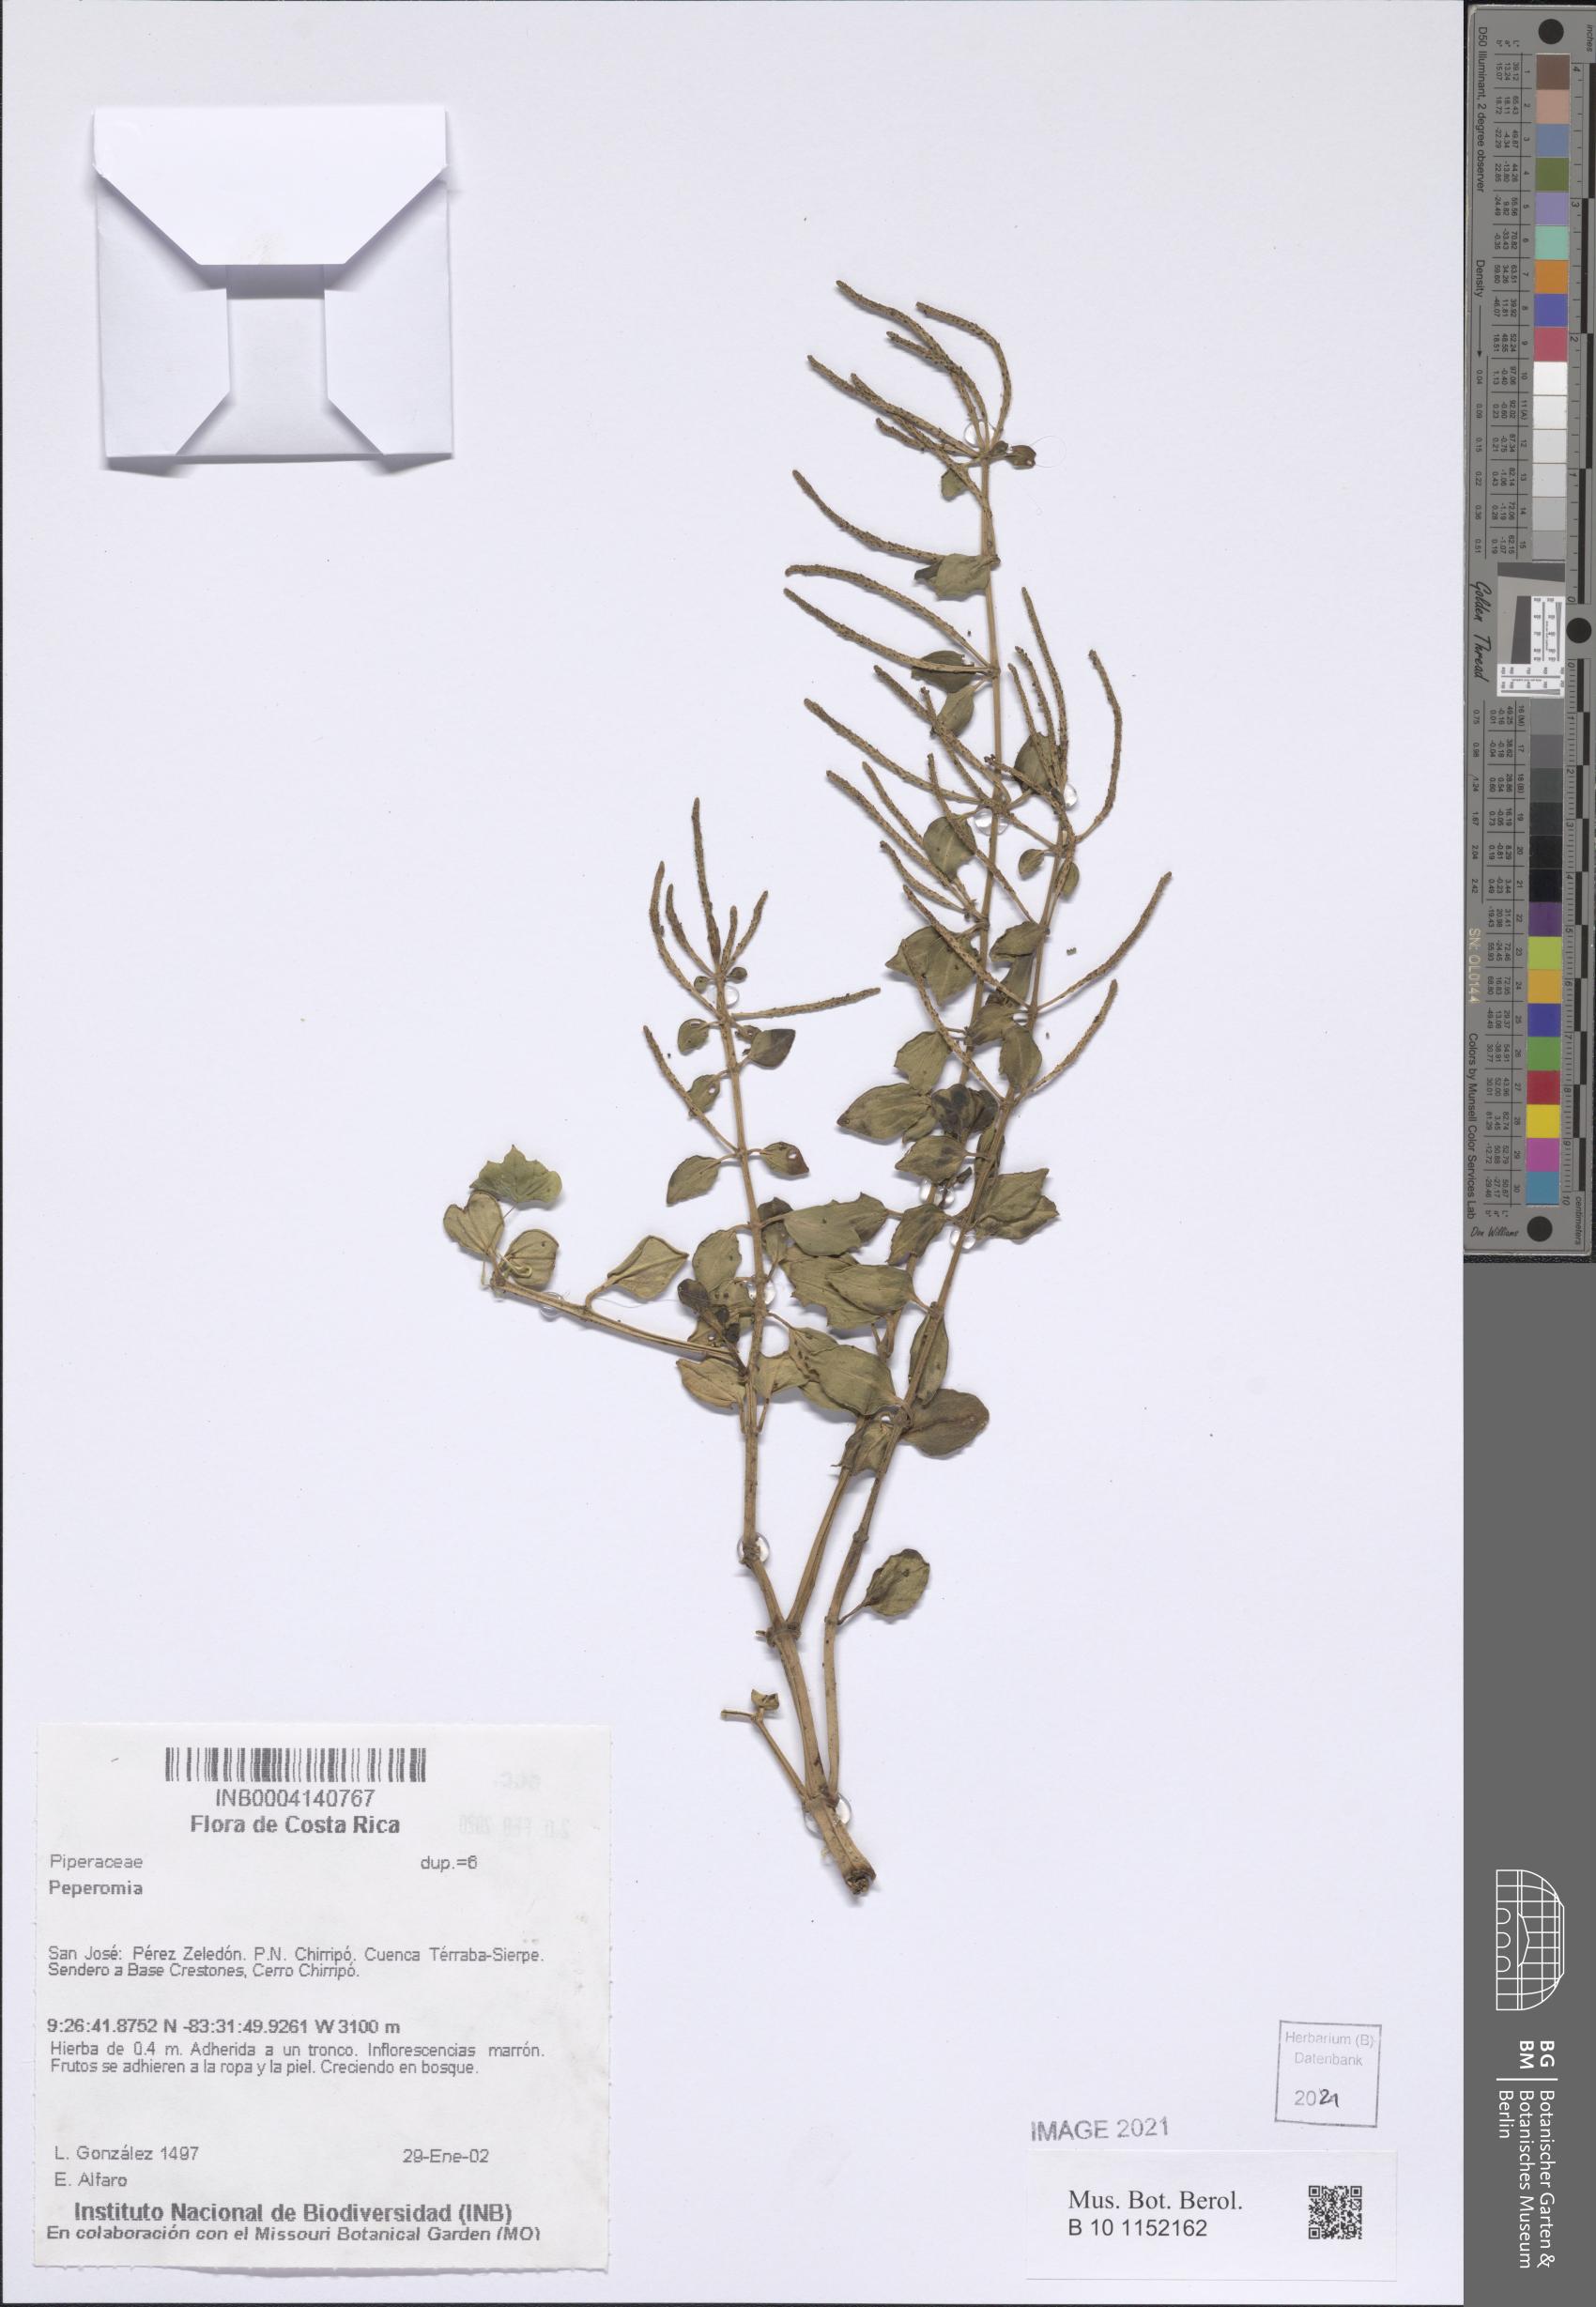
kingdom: Plantae
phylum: Tracheophyta
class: Magnoliopsida
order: Piperales
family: Piperaceae
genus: Peperomia
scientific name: Peperomia
